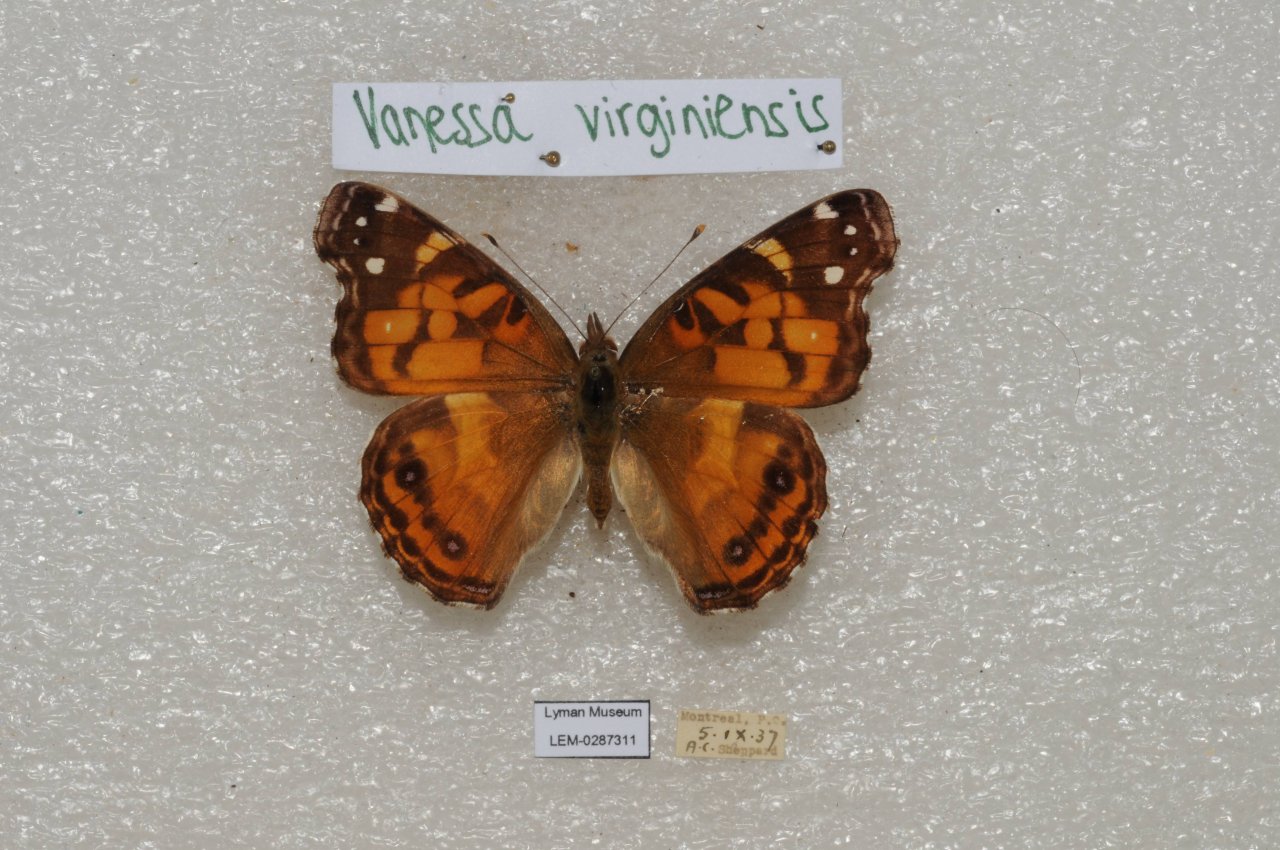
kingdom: Animalia
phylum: Arthropoda
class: Insecta
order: Lepidoptera
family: Nymphalidae
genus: Vanessa
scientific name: Vanessa virginiensis
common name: American Lady
